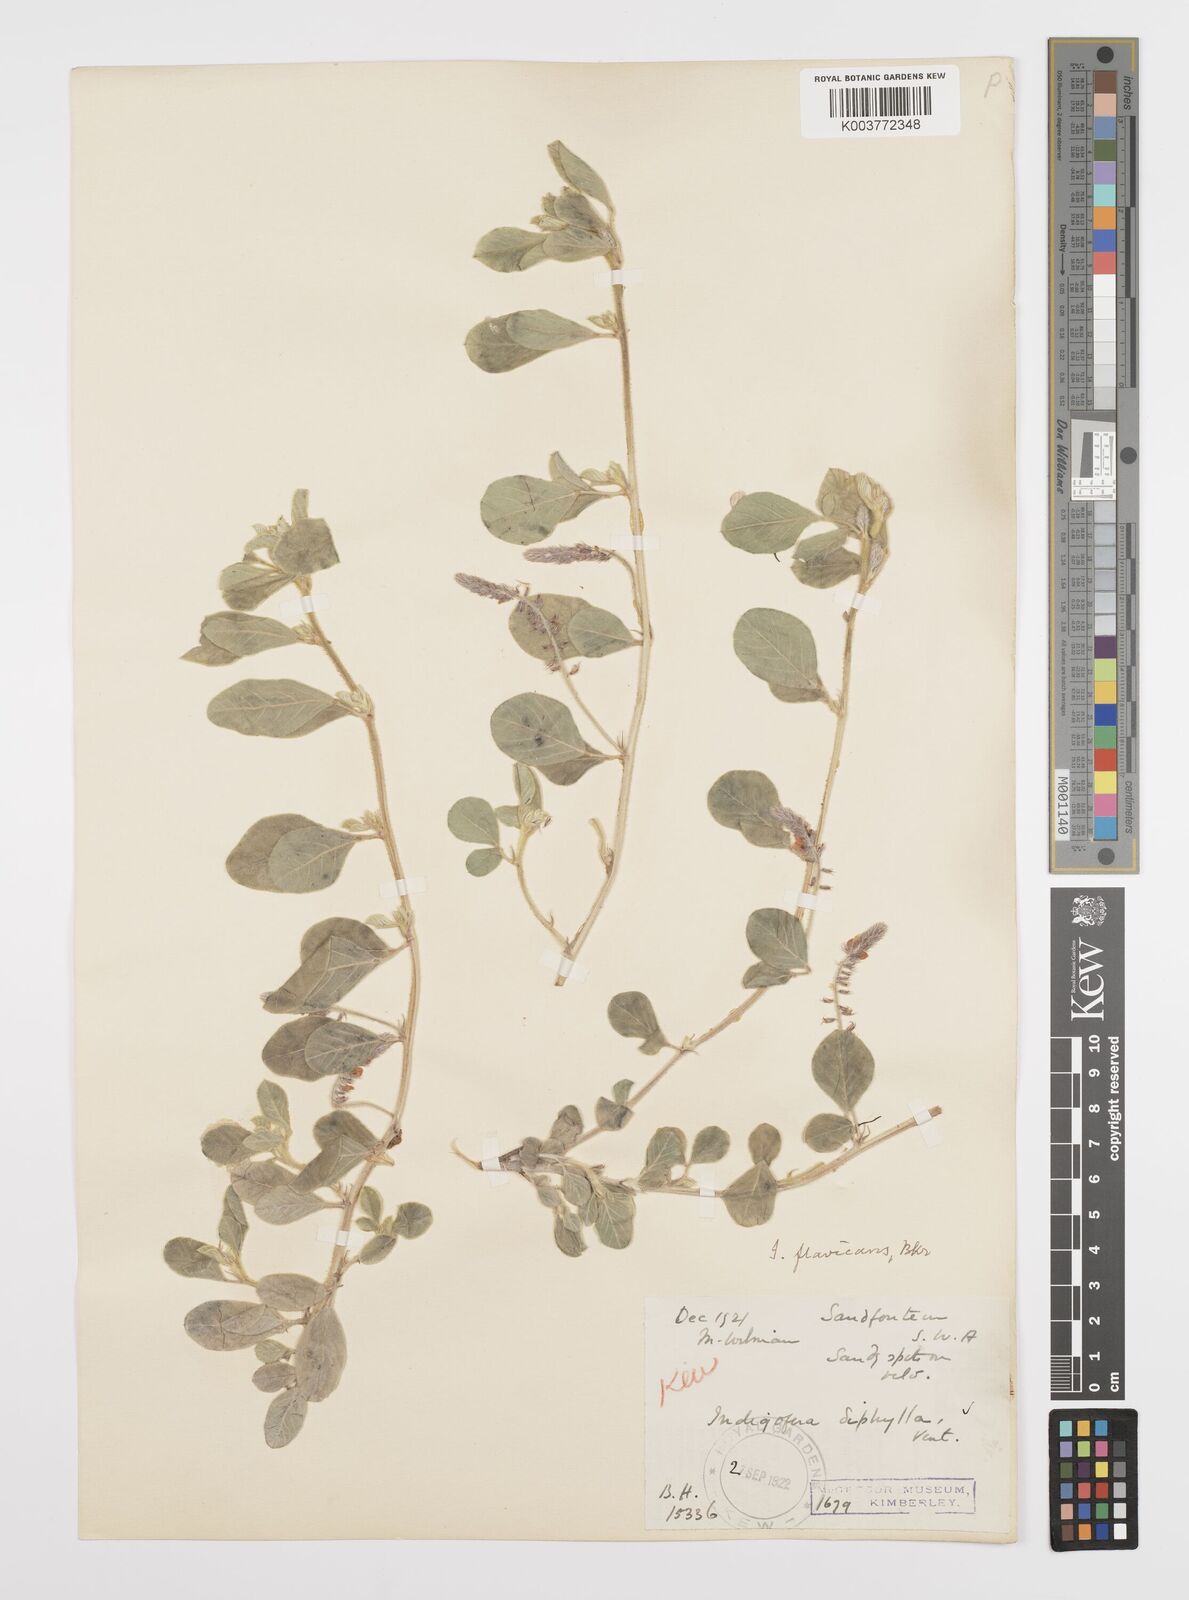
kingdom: Plantae
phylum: Tracheophyta
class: Magnoliopsida
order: Fabales
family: Fabaceae
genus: Indigofera
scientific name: Indigofera flavicans
